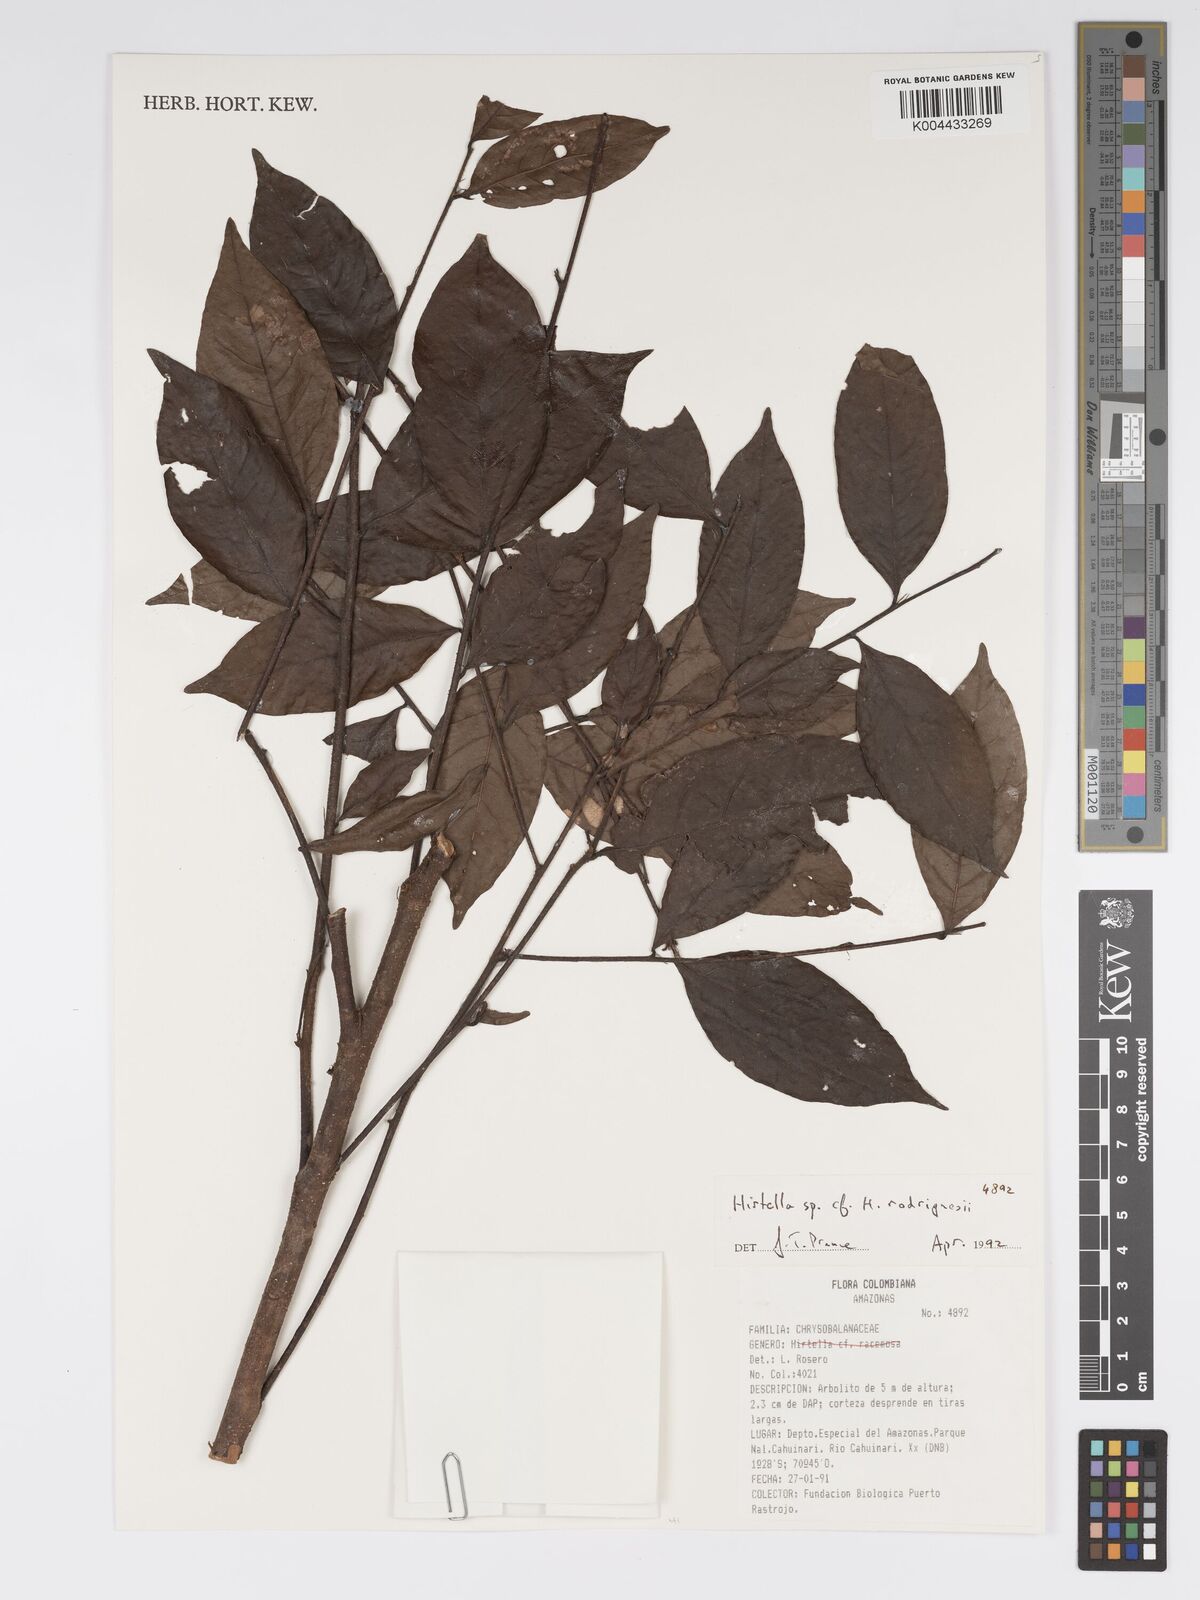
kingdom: Plantae
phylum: Tracheophyta
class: Magnoliopsida
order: Malpighiales
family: Chrysobalanaceae
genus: Hirtella
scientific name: Hirtella rodriguesii
